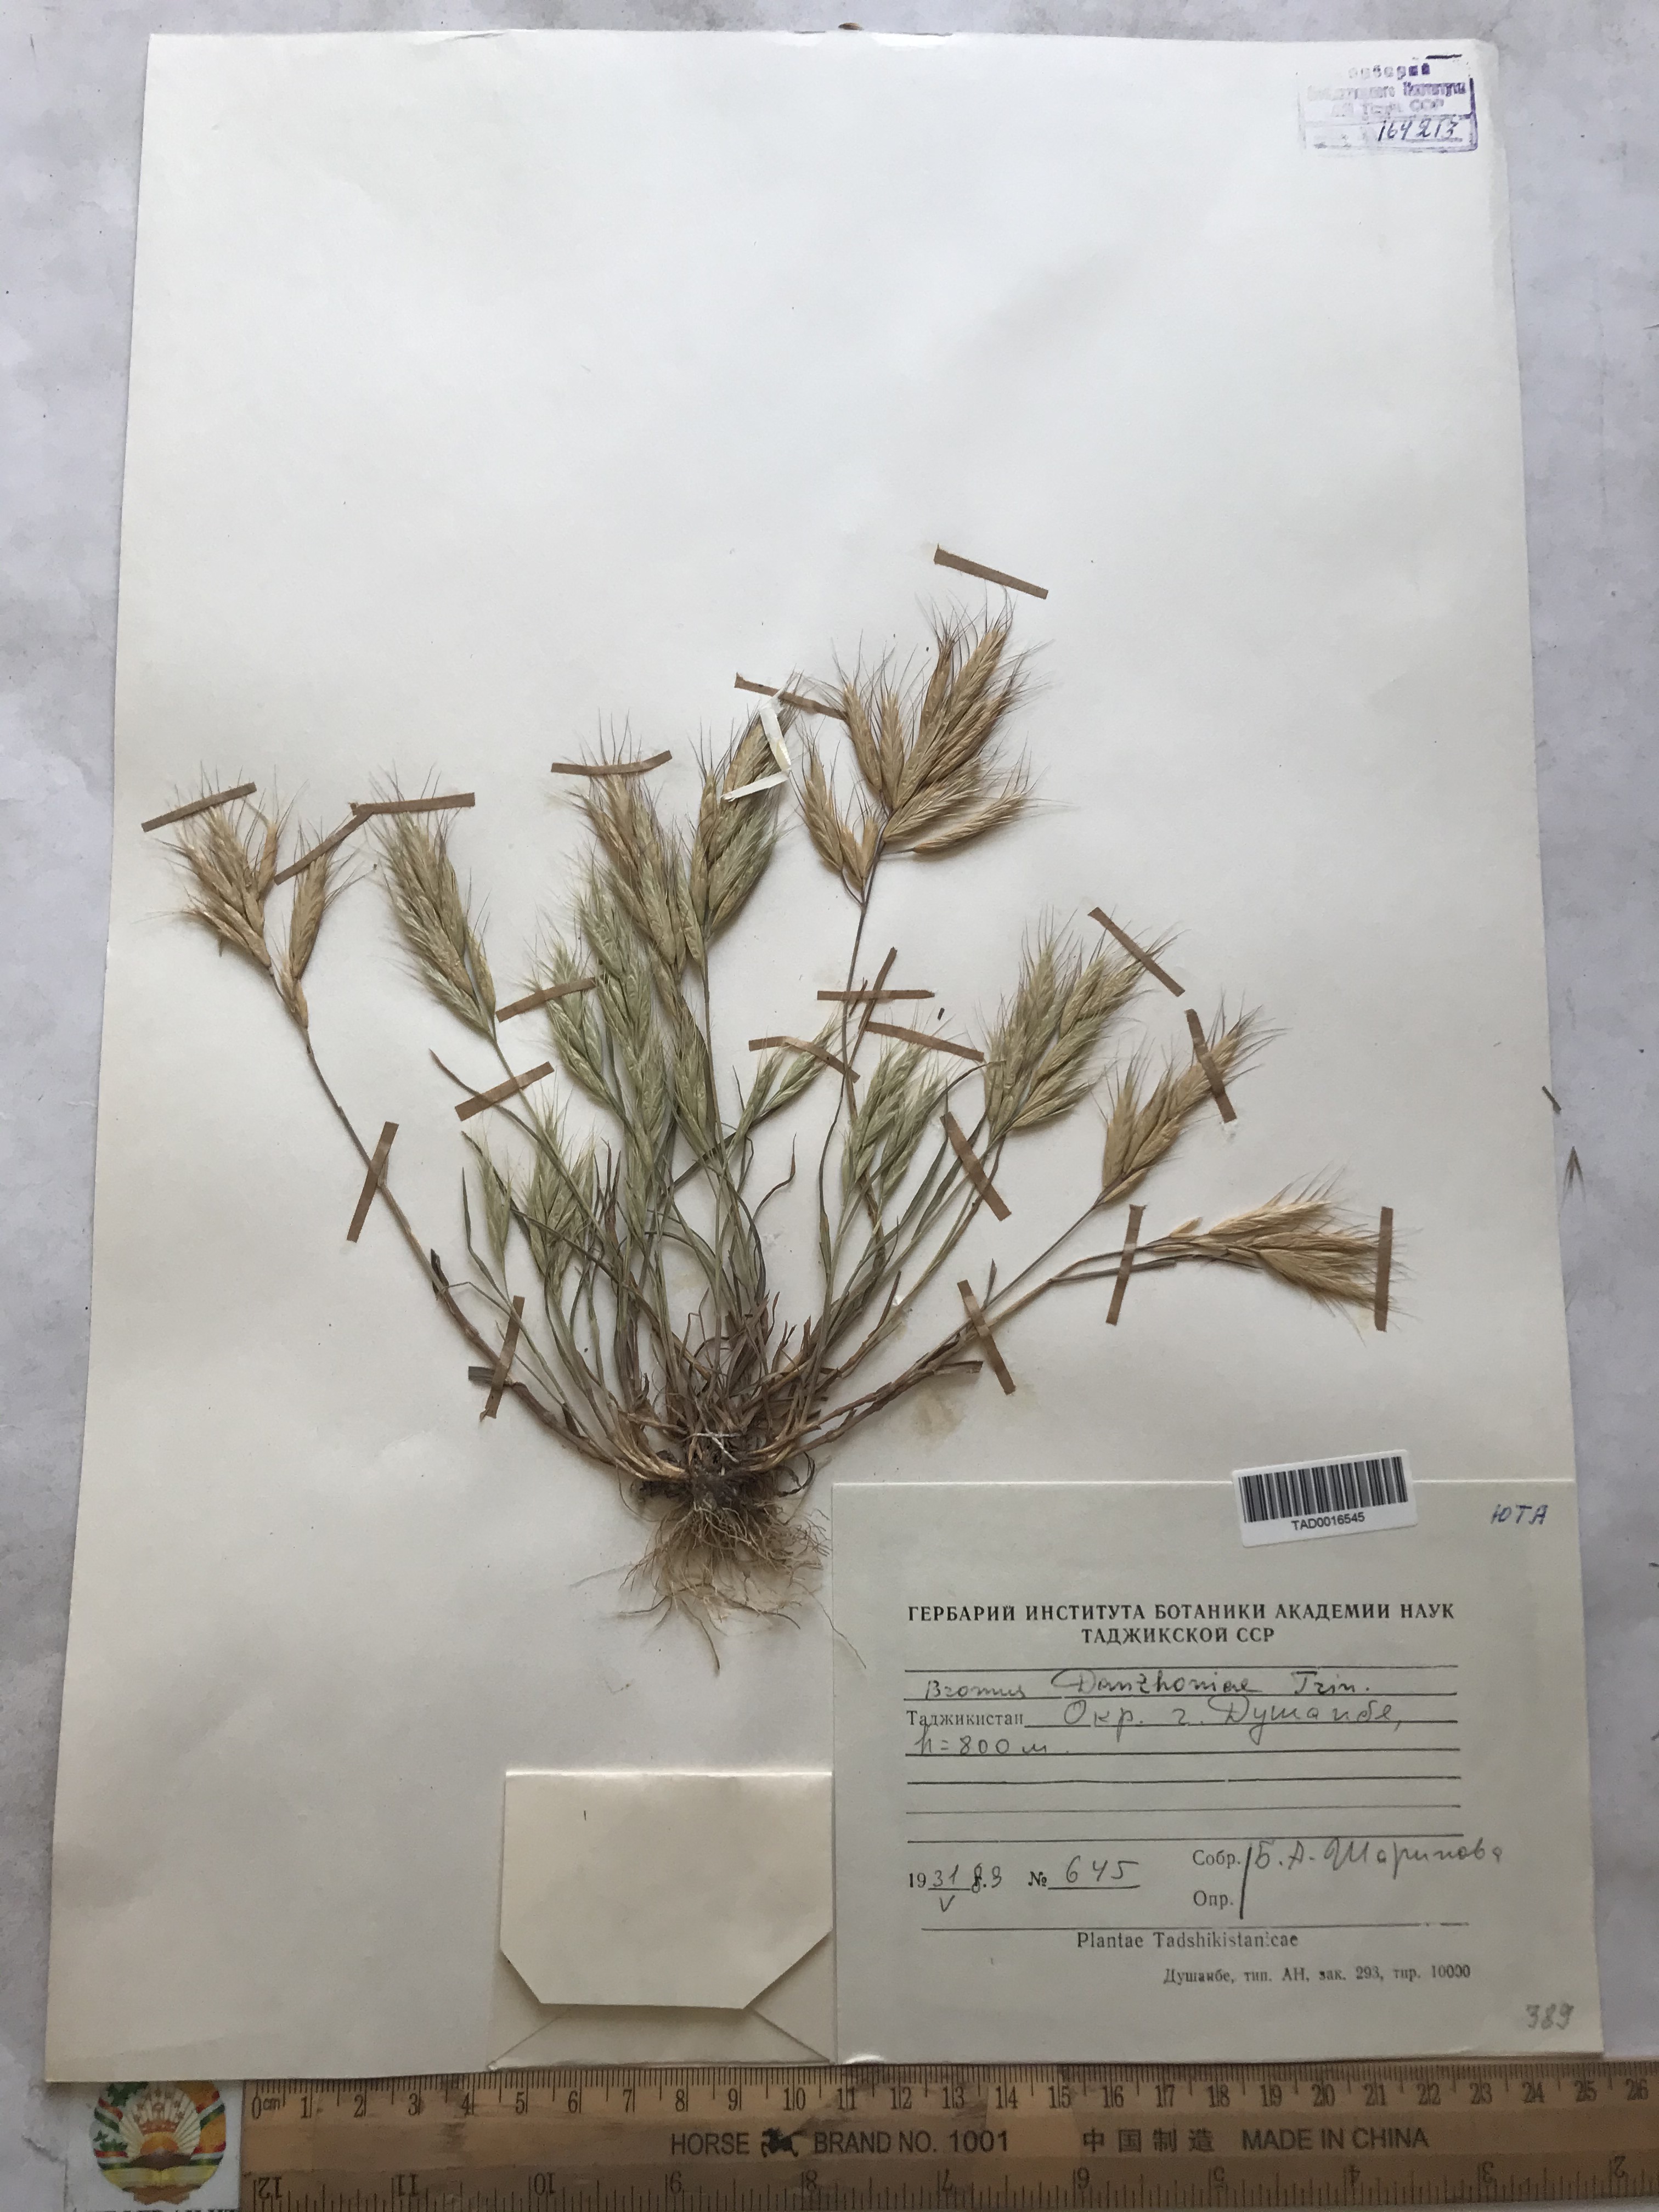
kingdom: Plantae
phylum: Tracheophyta
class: Liliopsida
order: Poales
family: Poaceae
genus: Bromus
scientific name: Bromus danthoniae
